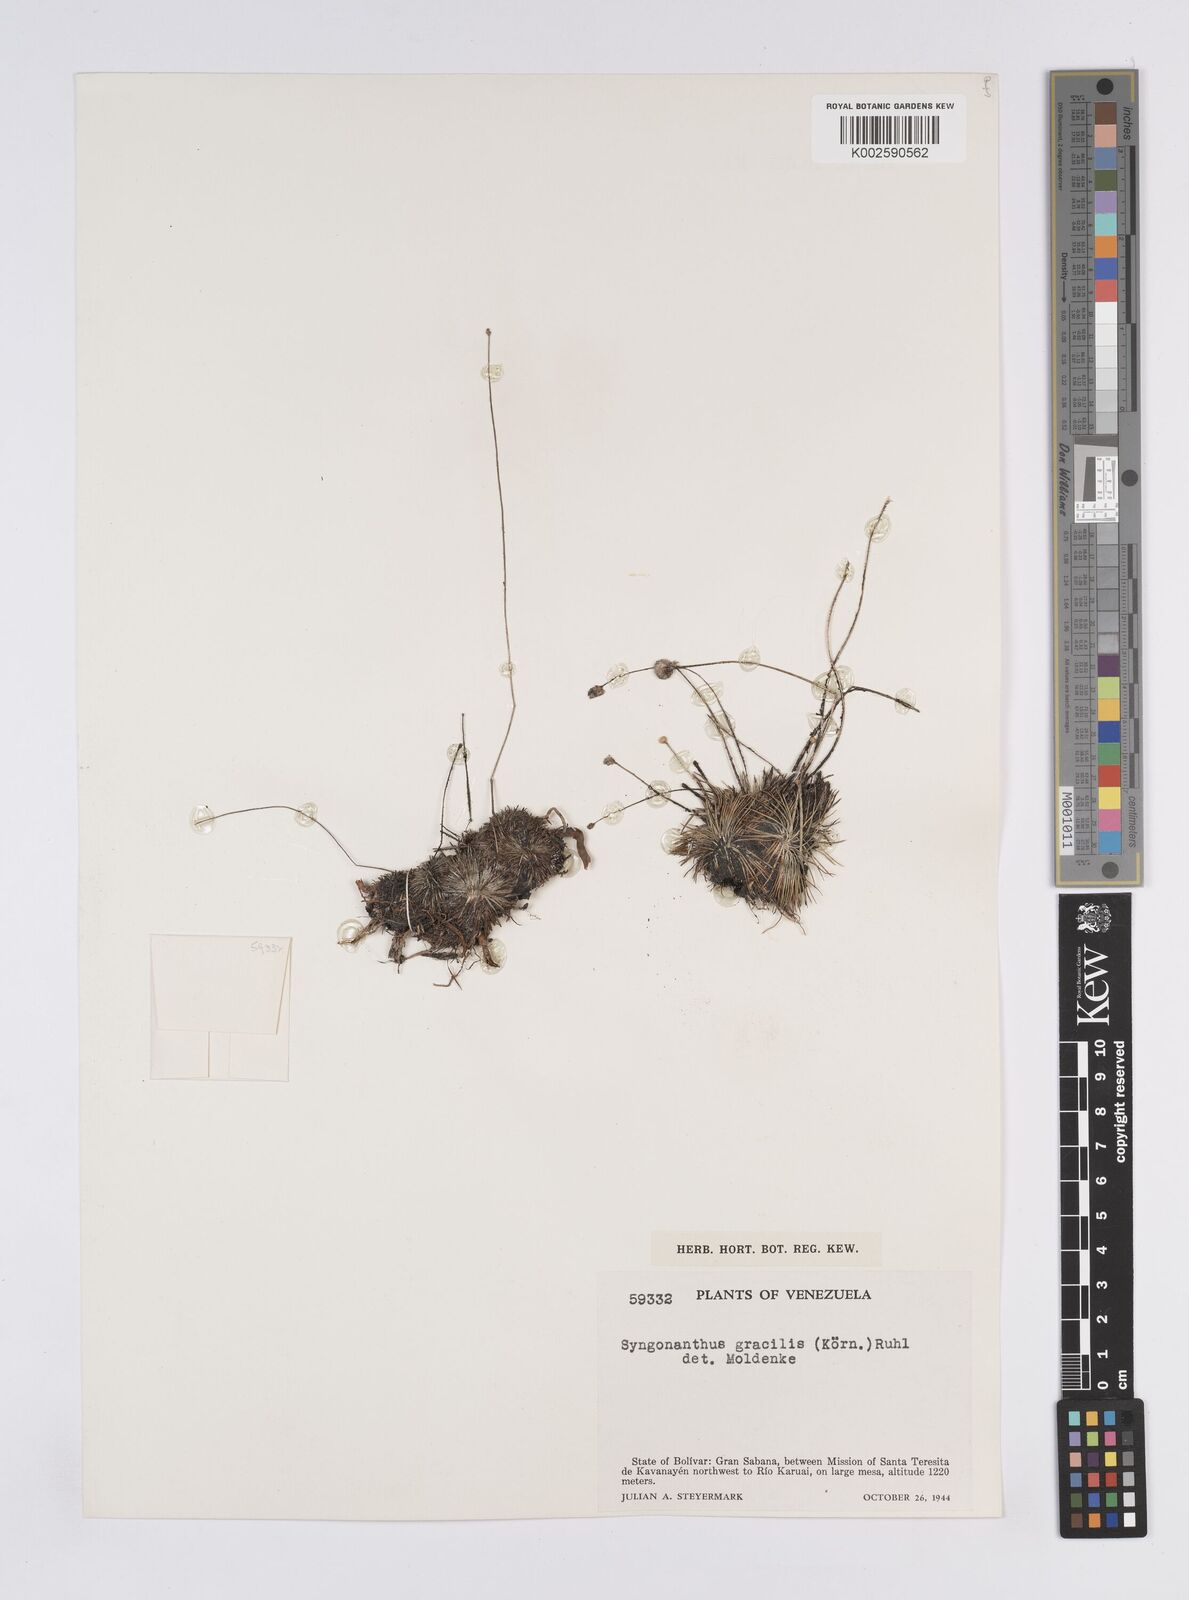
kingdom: Plantae
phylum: Tracheophyta
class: Liliopsida
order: Poales
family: Eriocaulaceae
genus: Syngonanthus
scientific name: Syngonanthus
